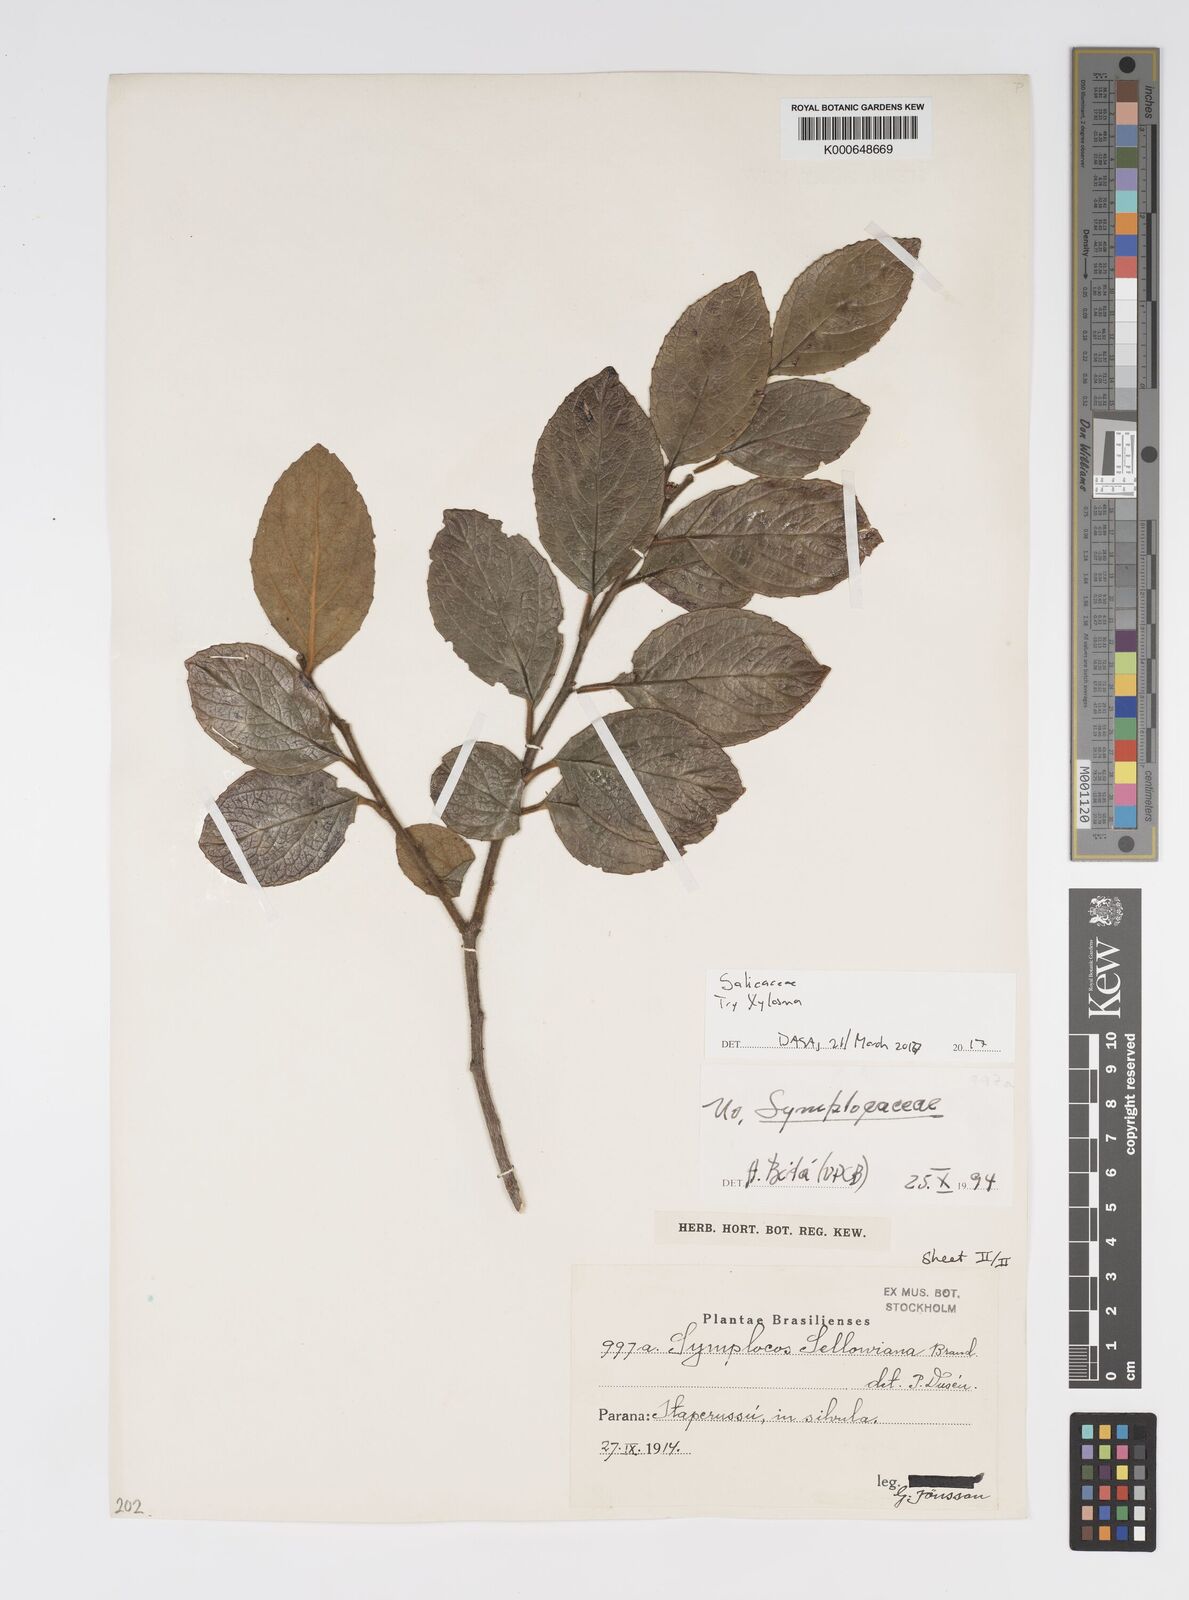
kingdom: Plantae
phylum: Tracheophyta
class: Magnoliopsida
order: Malpighiales
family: Salicaceae
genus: Xylosma
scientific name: Xylosma
